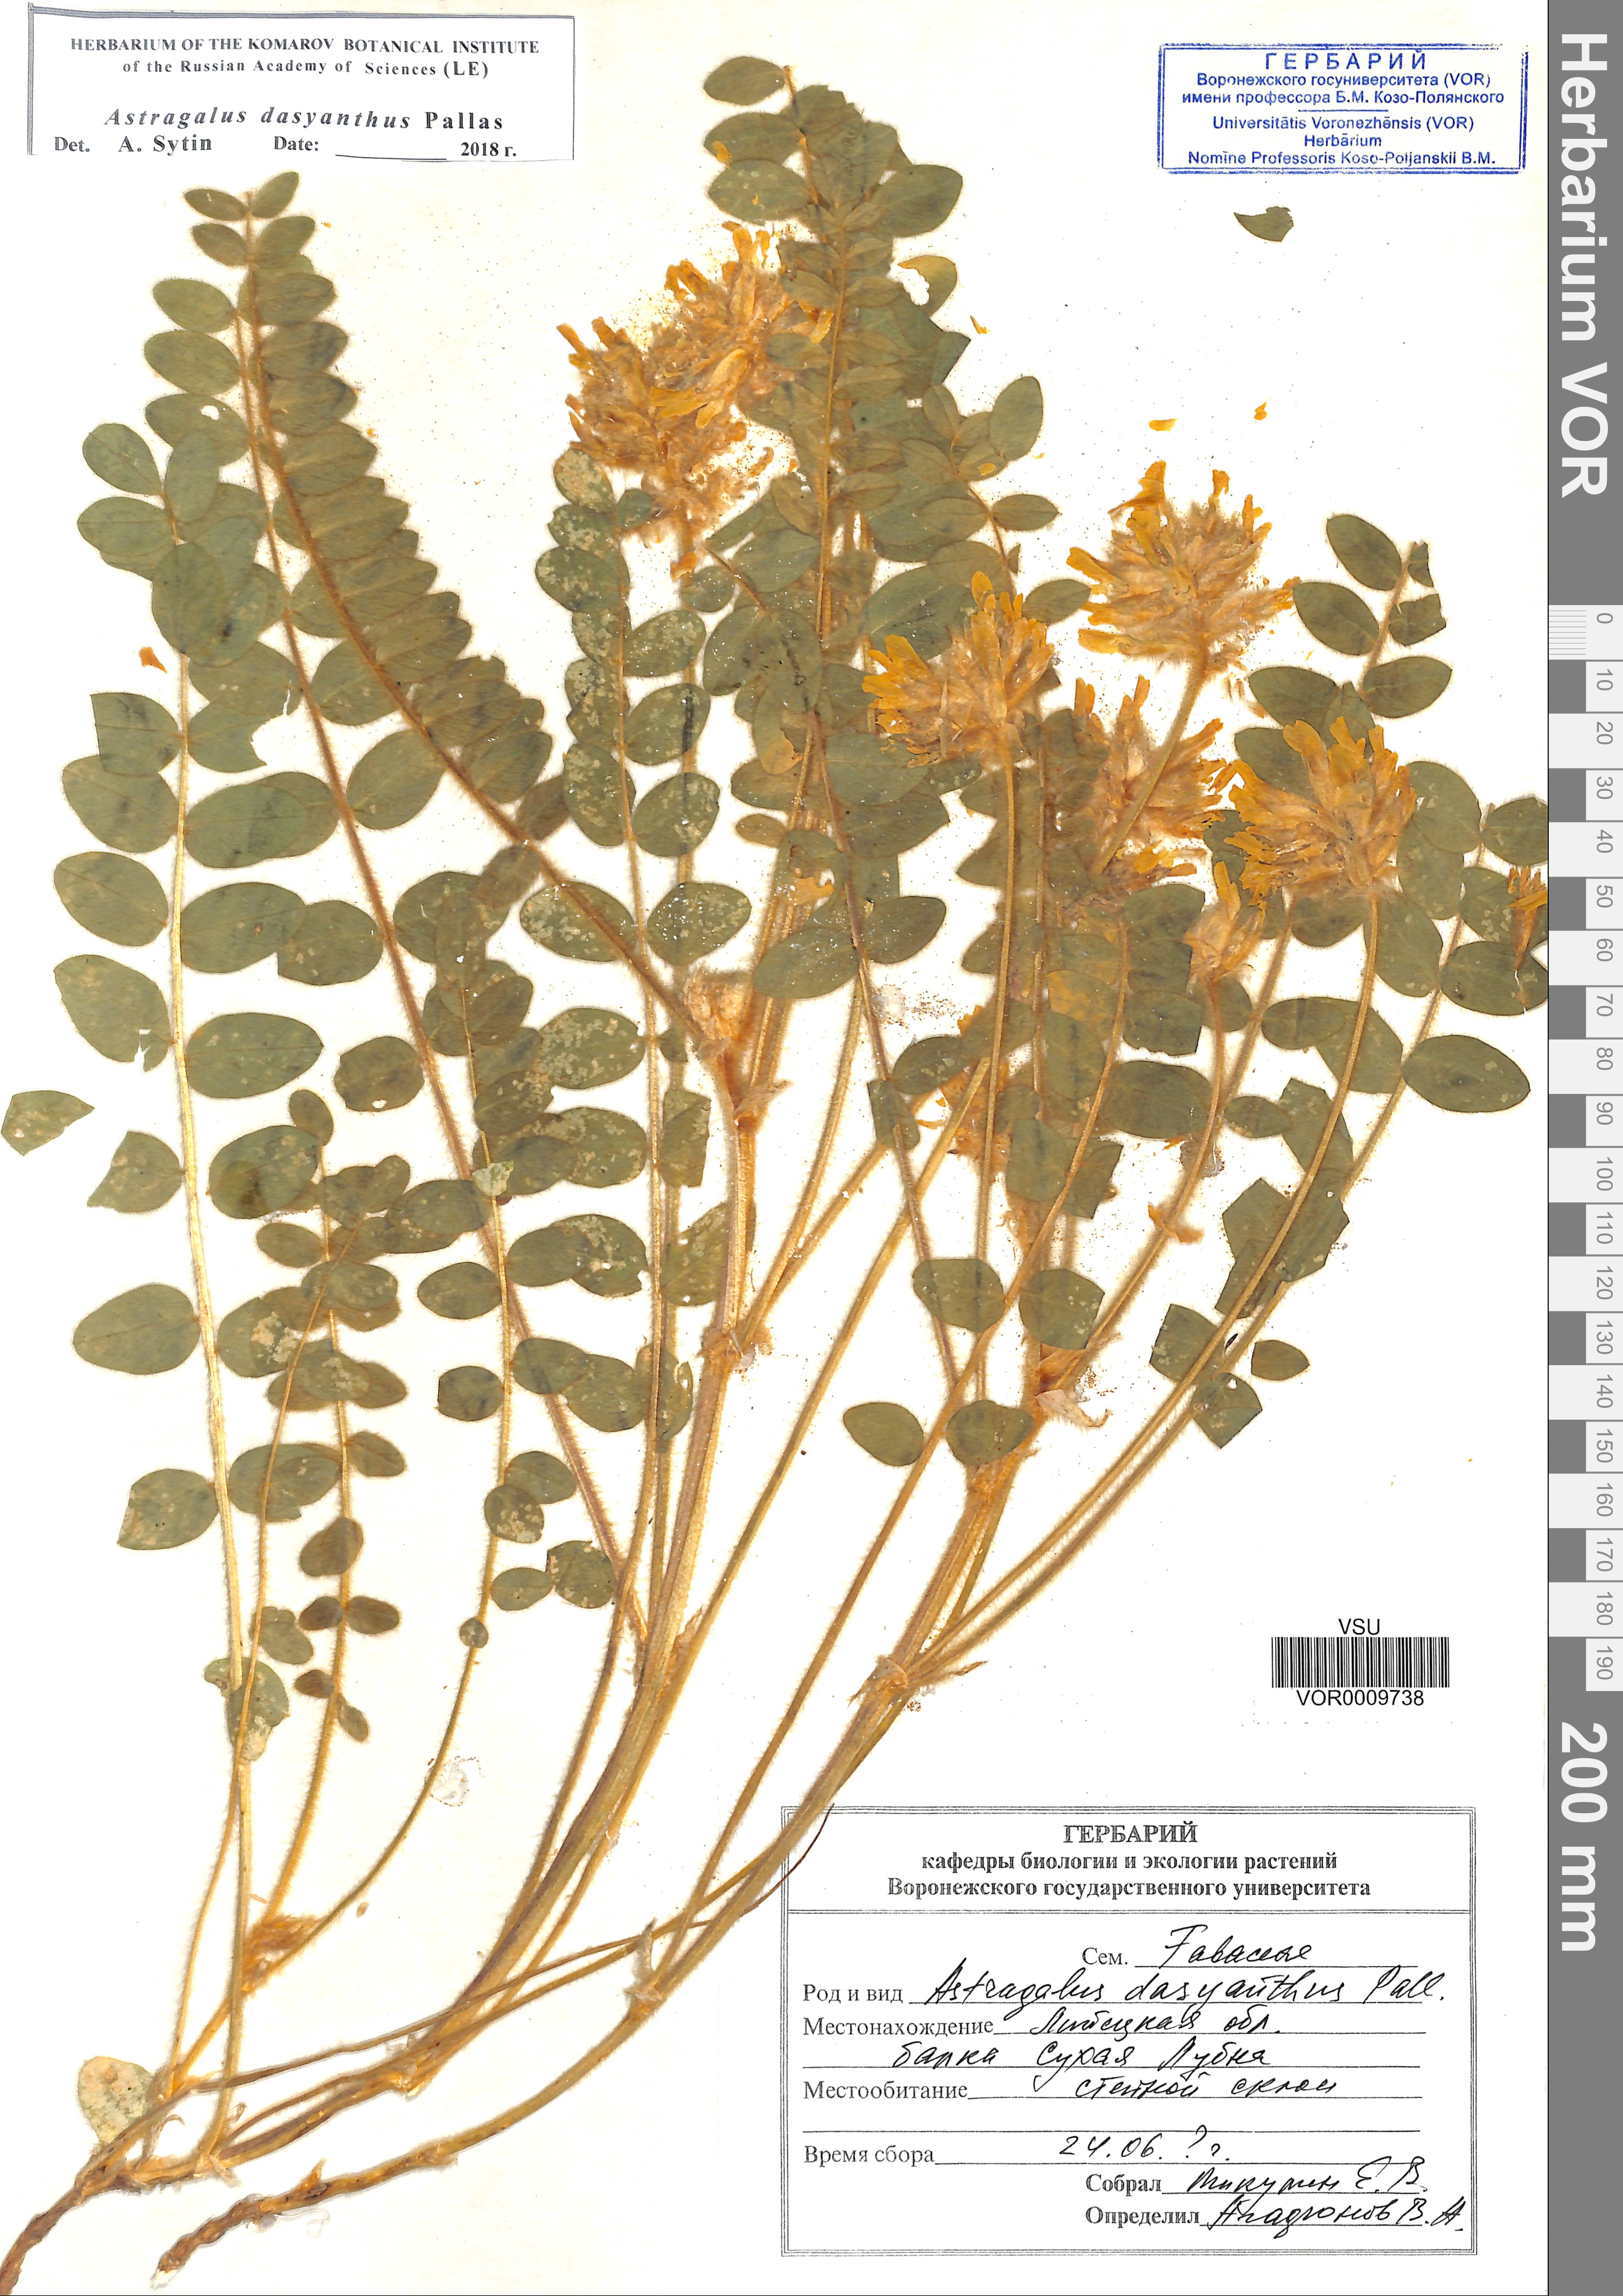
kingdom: Plantae
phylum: Tracheophyta
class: Magnoliopsida
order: Fabales
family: Fabaceae
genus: Astragalus
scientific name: Astragalus dasyanthus
